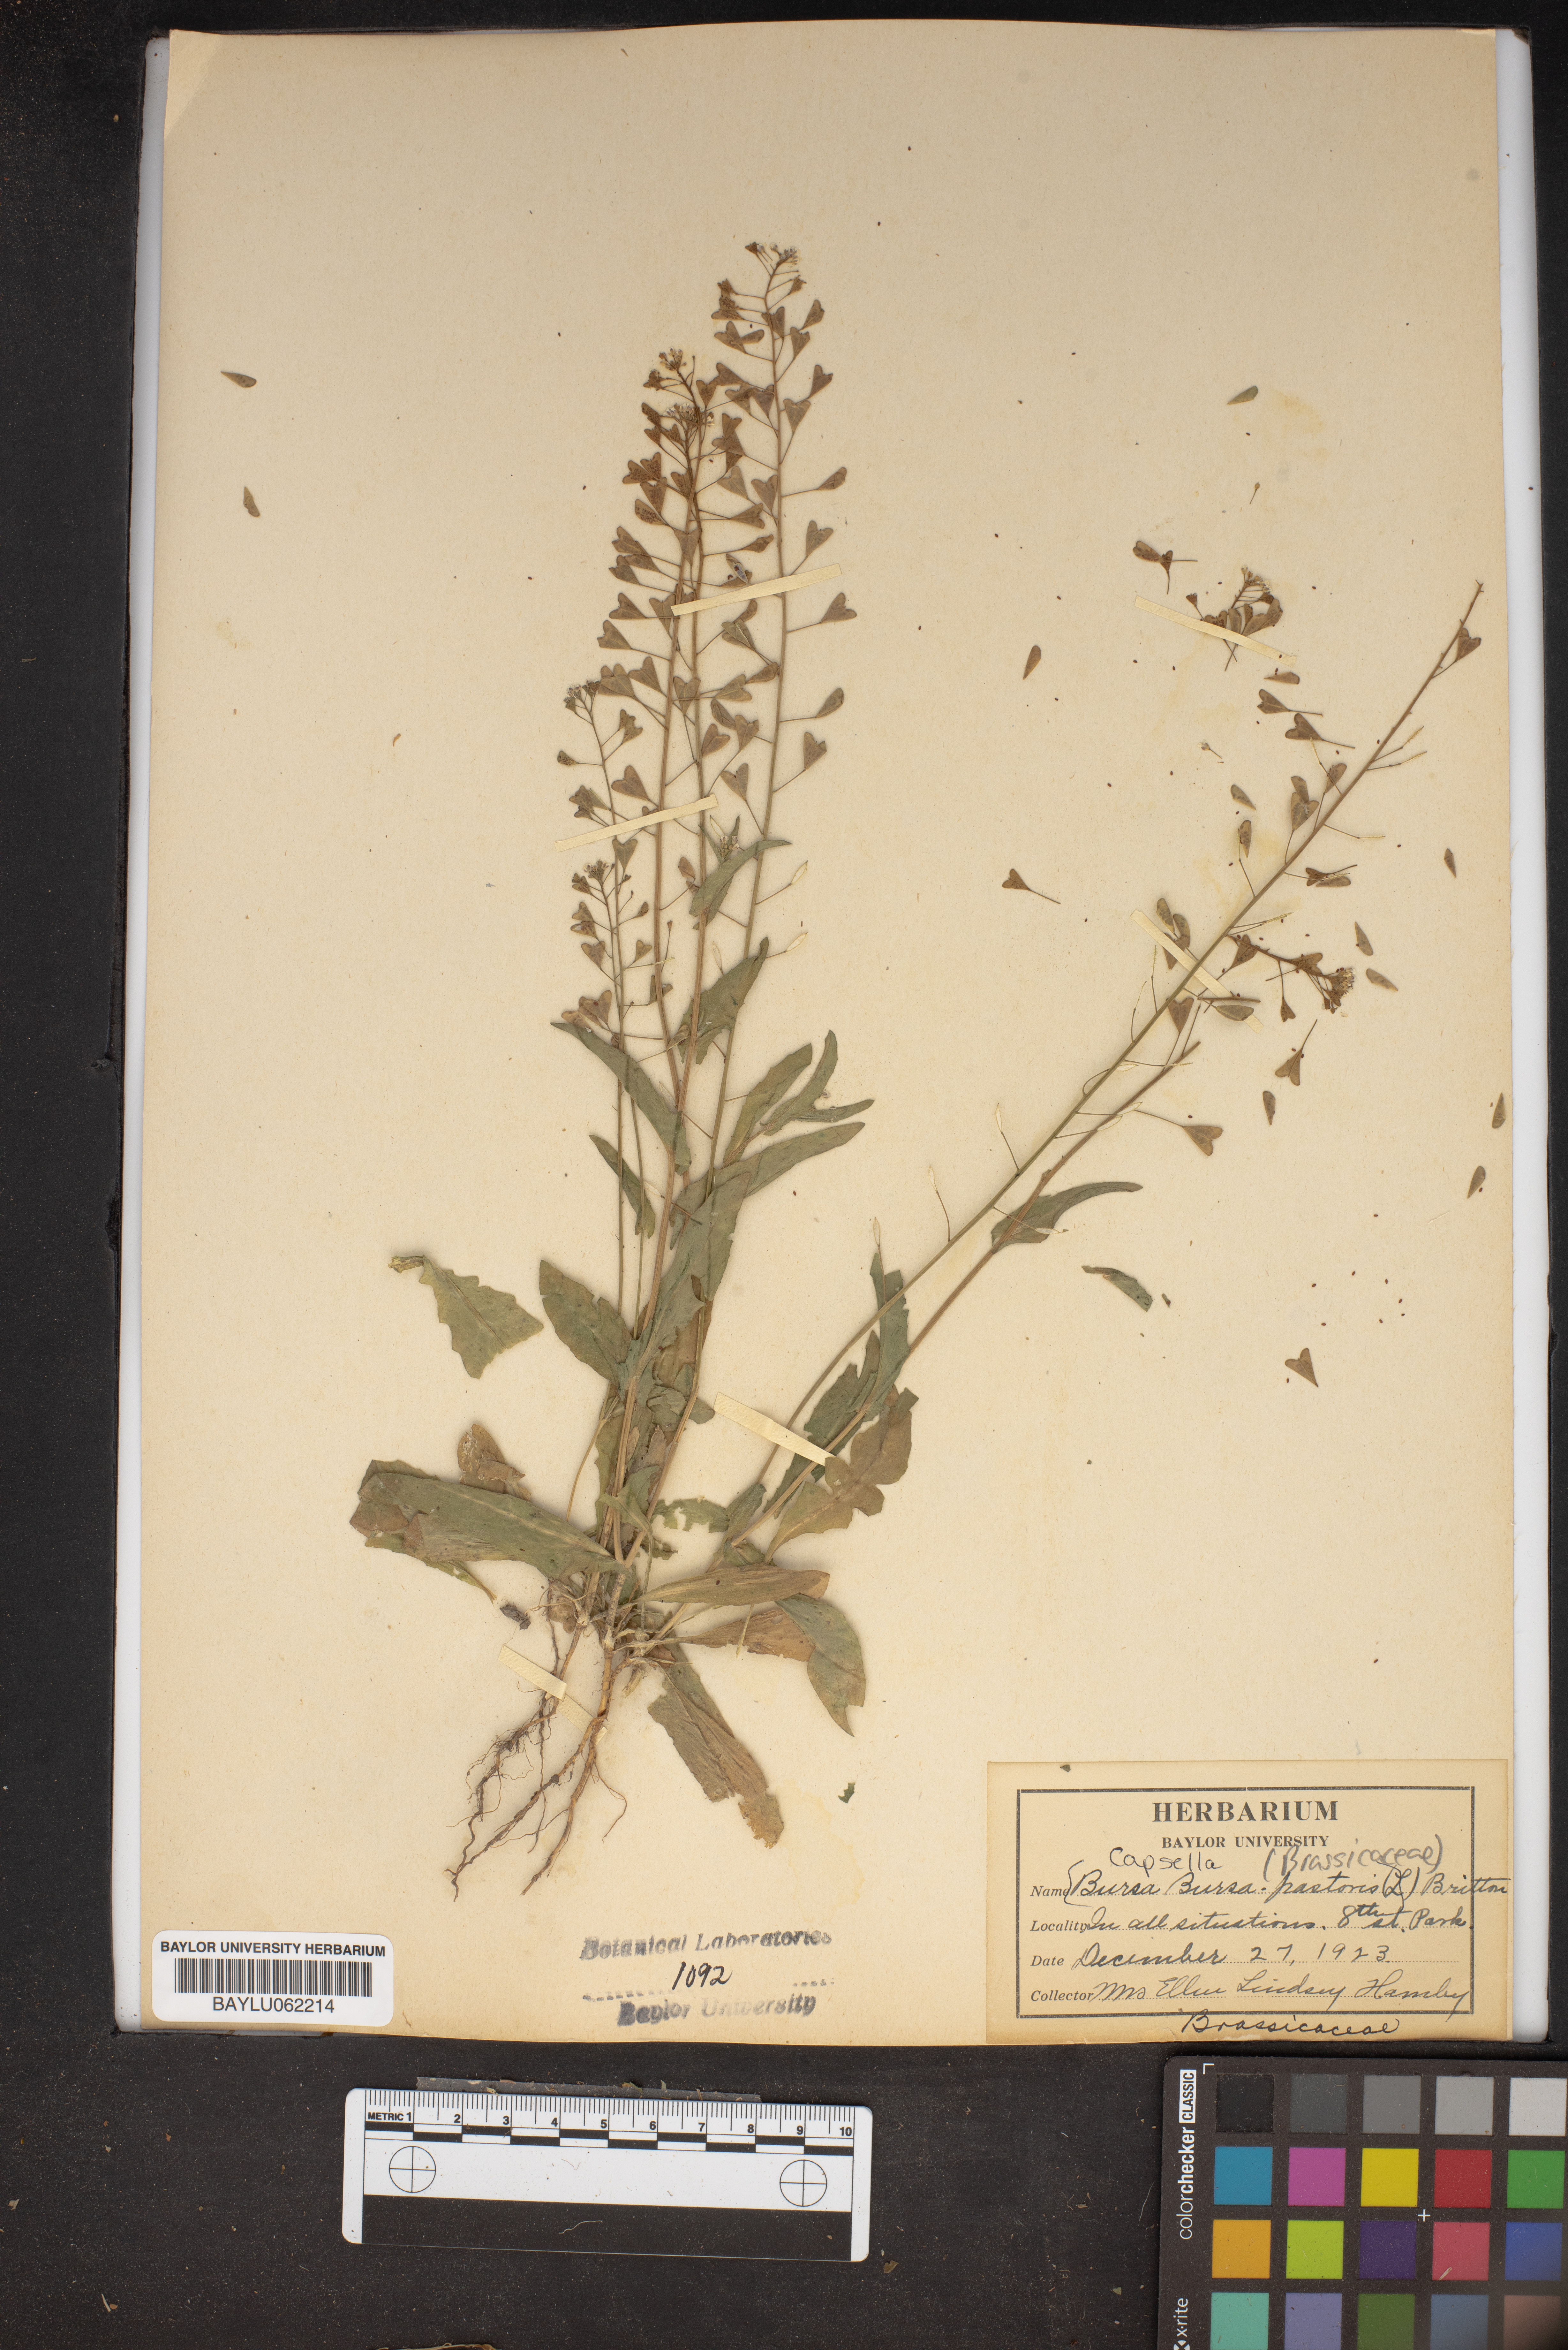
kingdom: Plantae
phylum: Tracheophyta
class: Magnoliopsida
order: Brassicales
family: Brassicaceae
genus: Capsella
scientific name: Capsella bursa-pastoris
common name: Shepherd's purse
